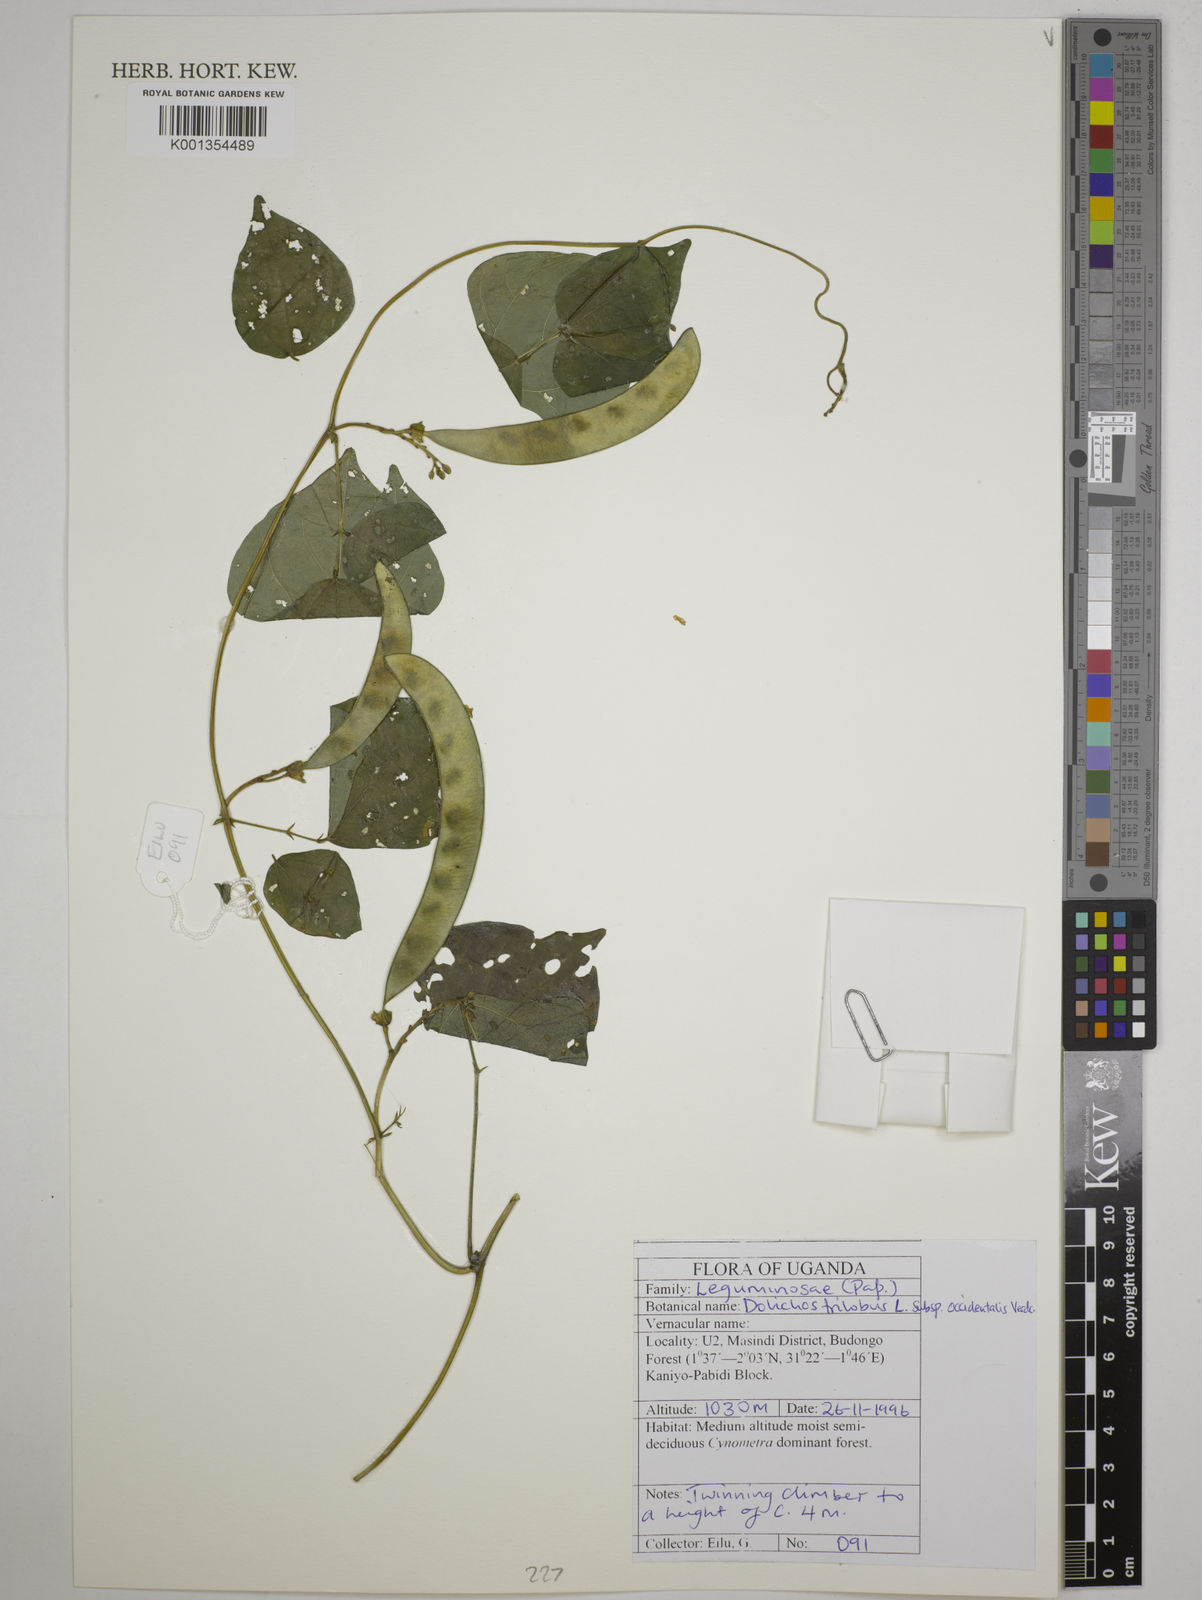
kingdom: Plantae
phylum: Tracheophyta
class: Magnoliopsida
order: Fabales
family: Fabaceae
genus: Dolichos
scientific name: Dolichos
